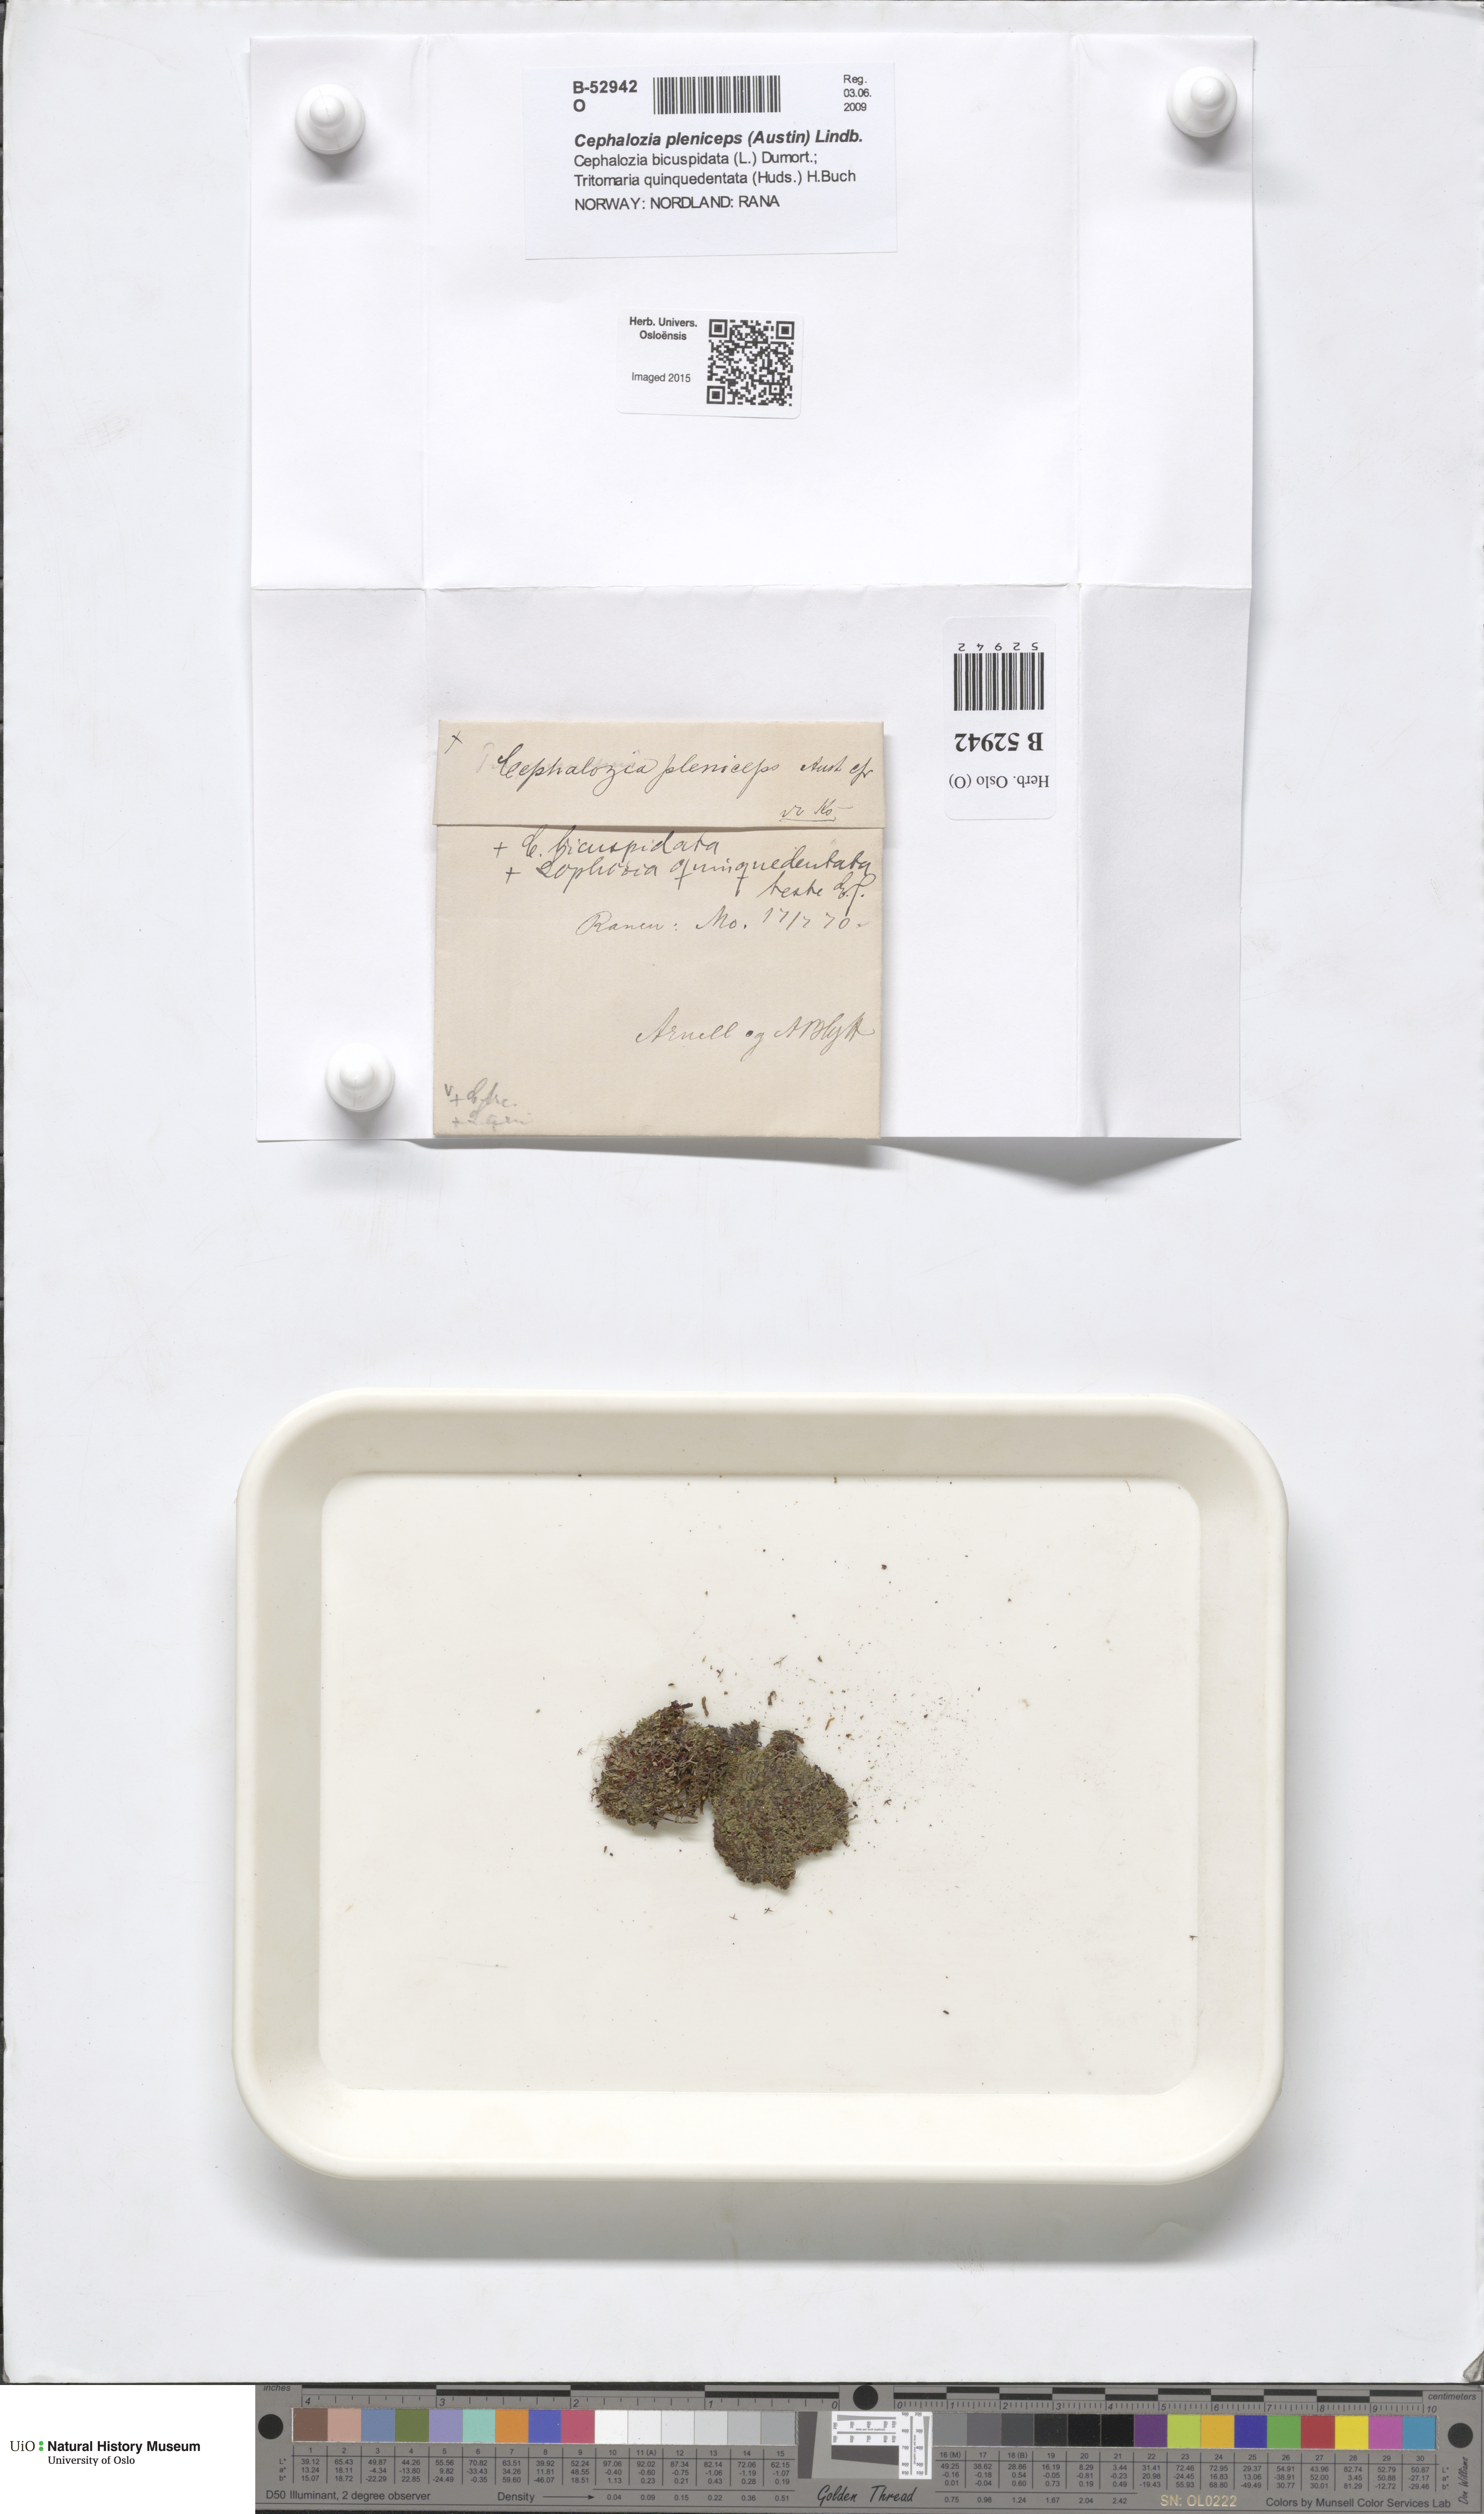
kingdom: Plantae
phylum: Marchantiophyta
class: Jungermanniopsida
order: Jungermanniales
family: Cephaloziaceae
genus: Fuscocephaloziopsis
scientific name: Fuscocephaloziopsis pleniceps
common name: Blunt pincerwort
